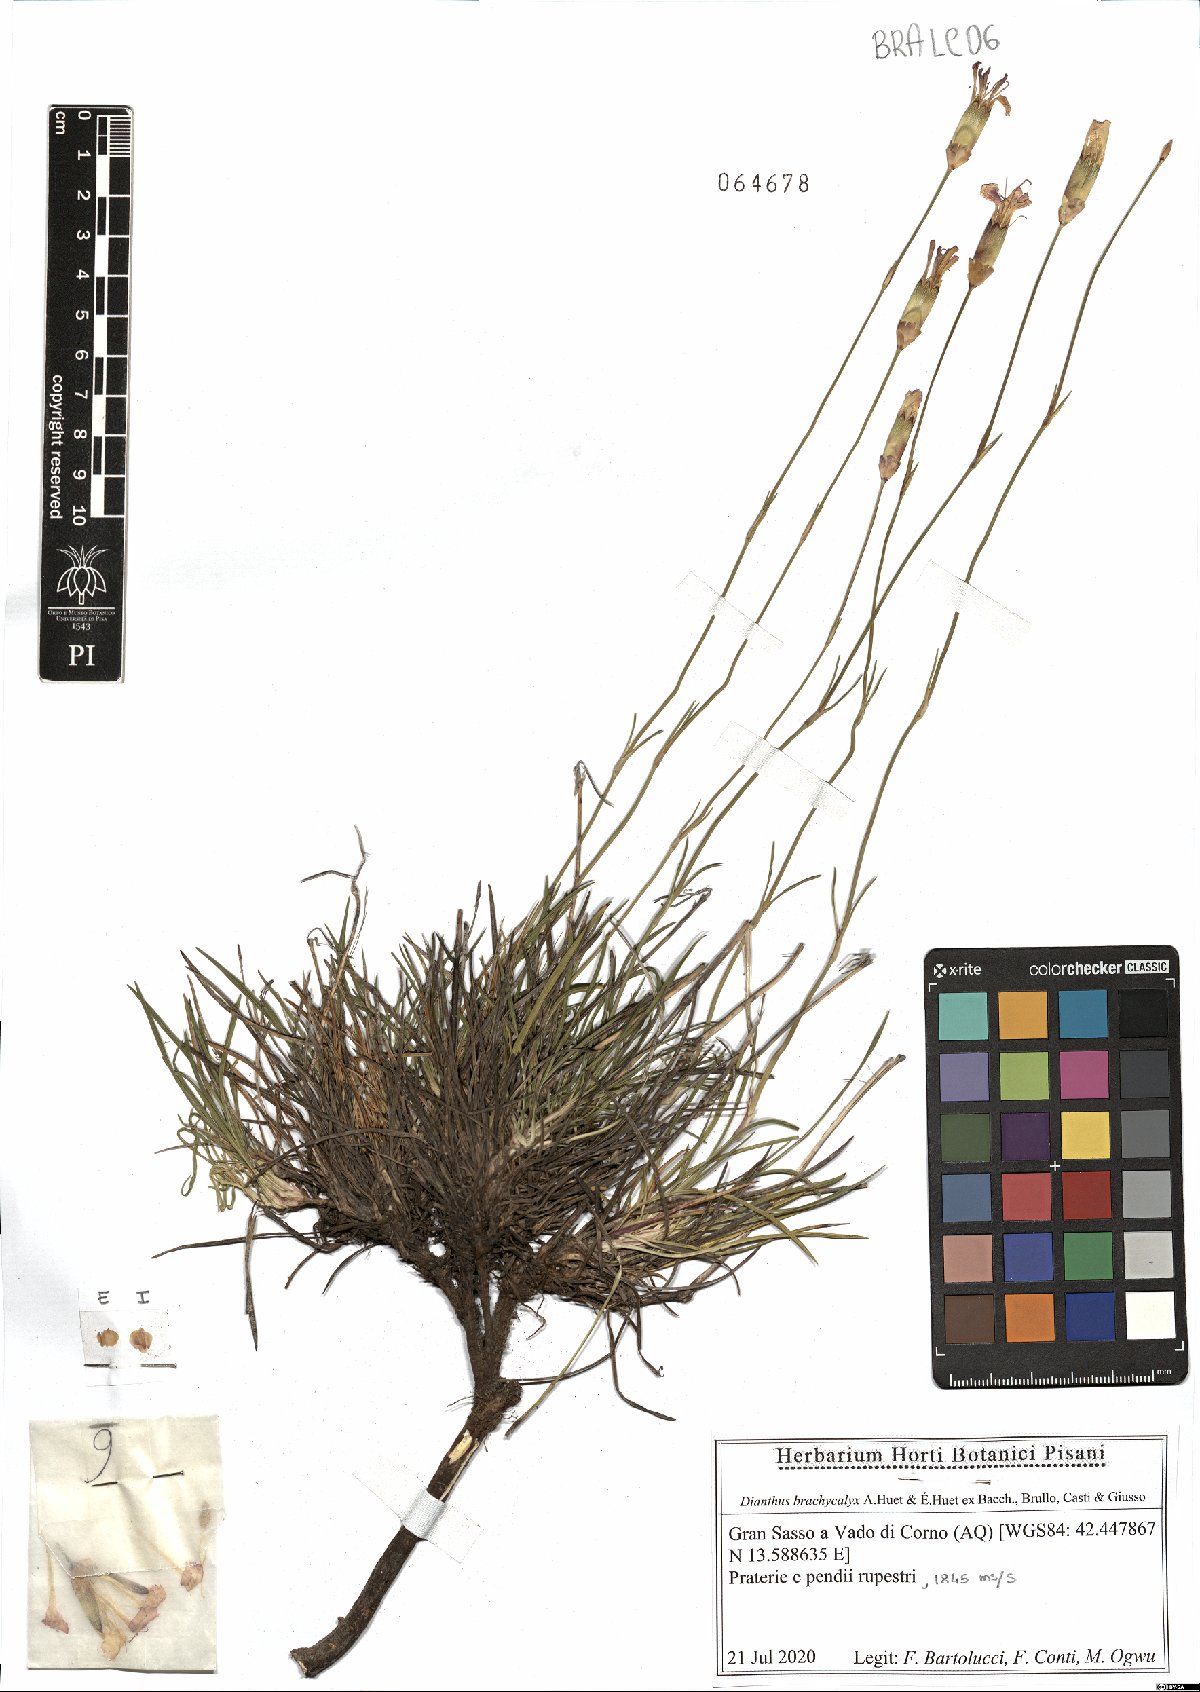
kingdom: Plantae
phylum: Tracheophyta
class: Magnoliopsida
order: Caryophyllales
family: Caryophyllaceae
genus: Dianthus
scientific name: Dianthus brachycalyx
